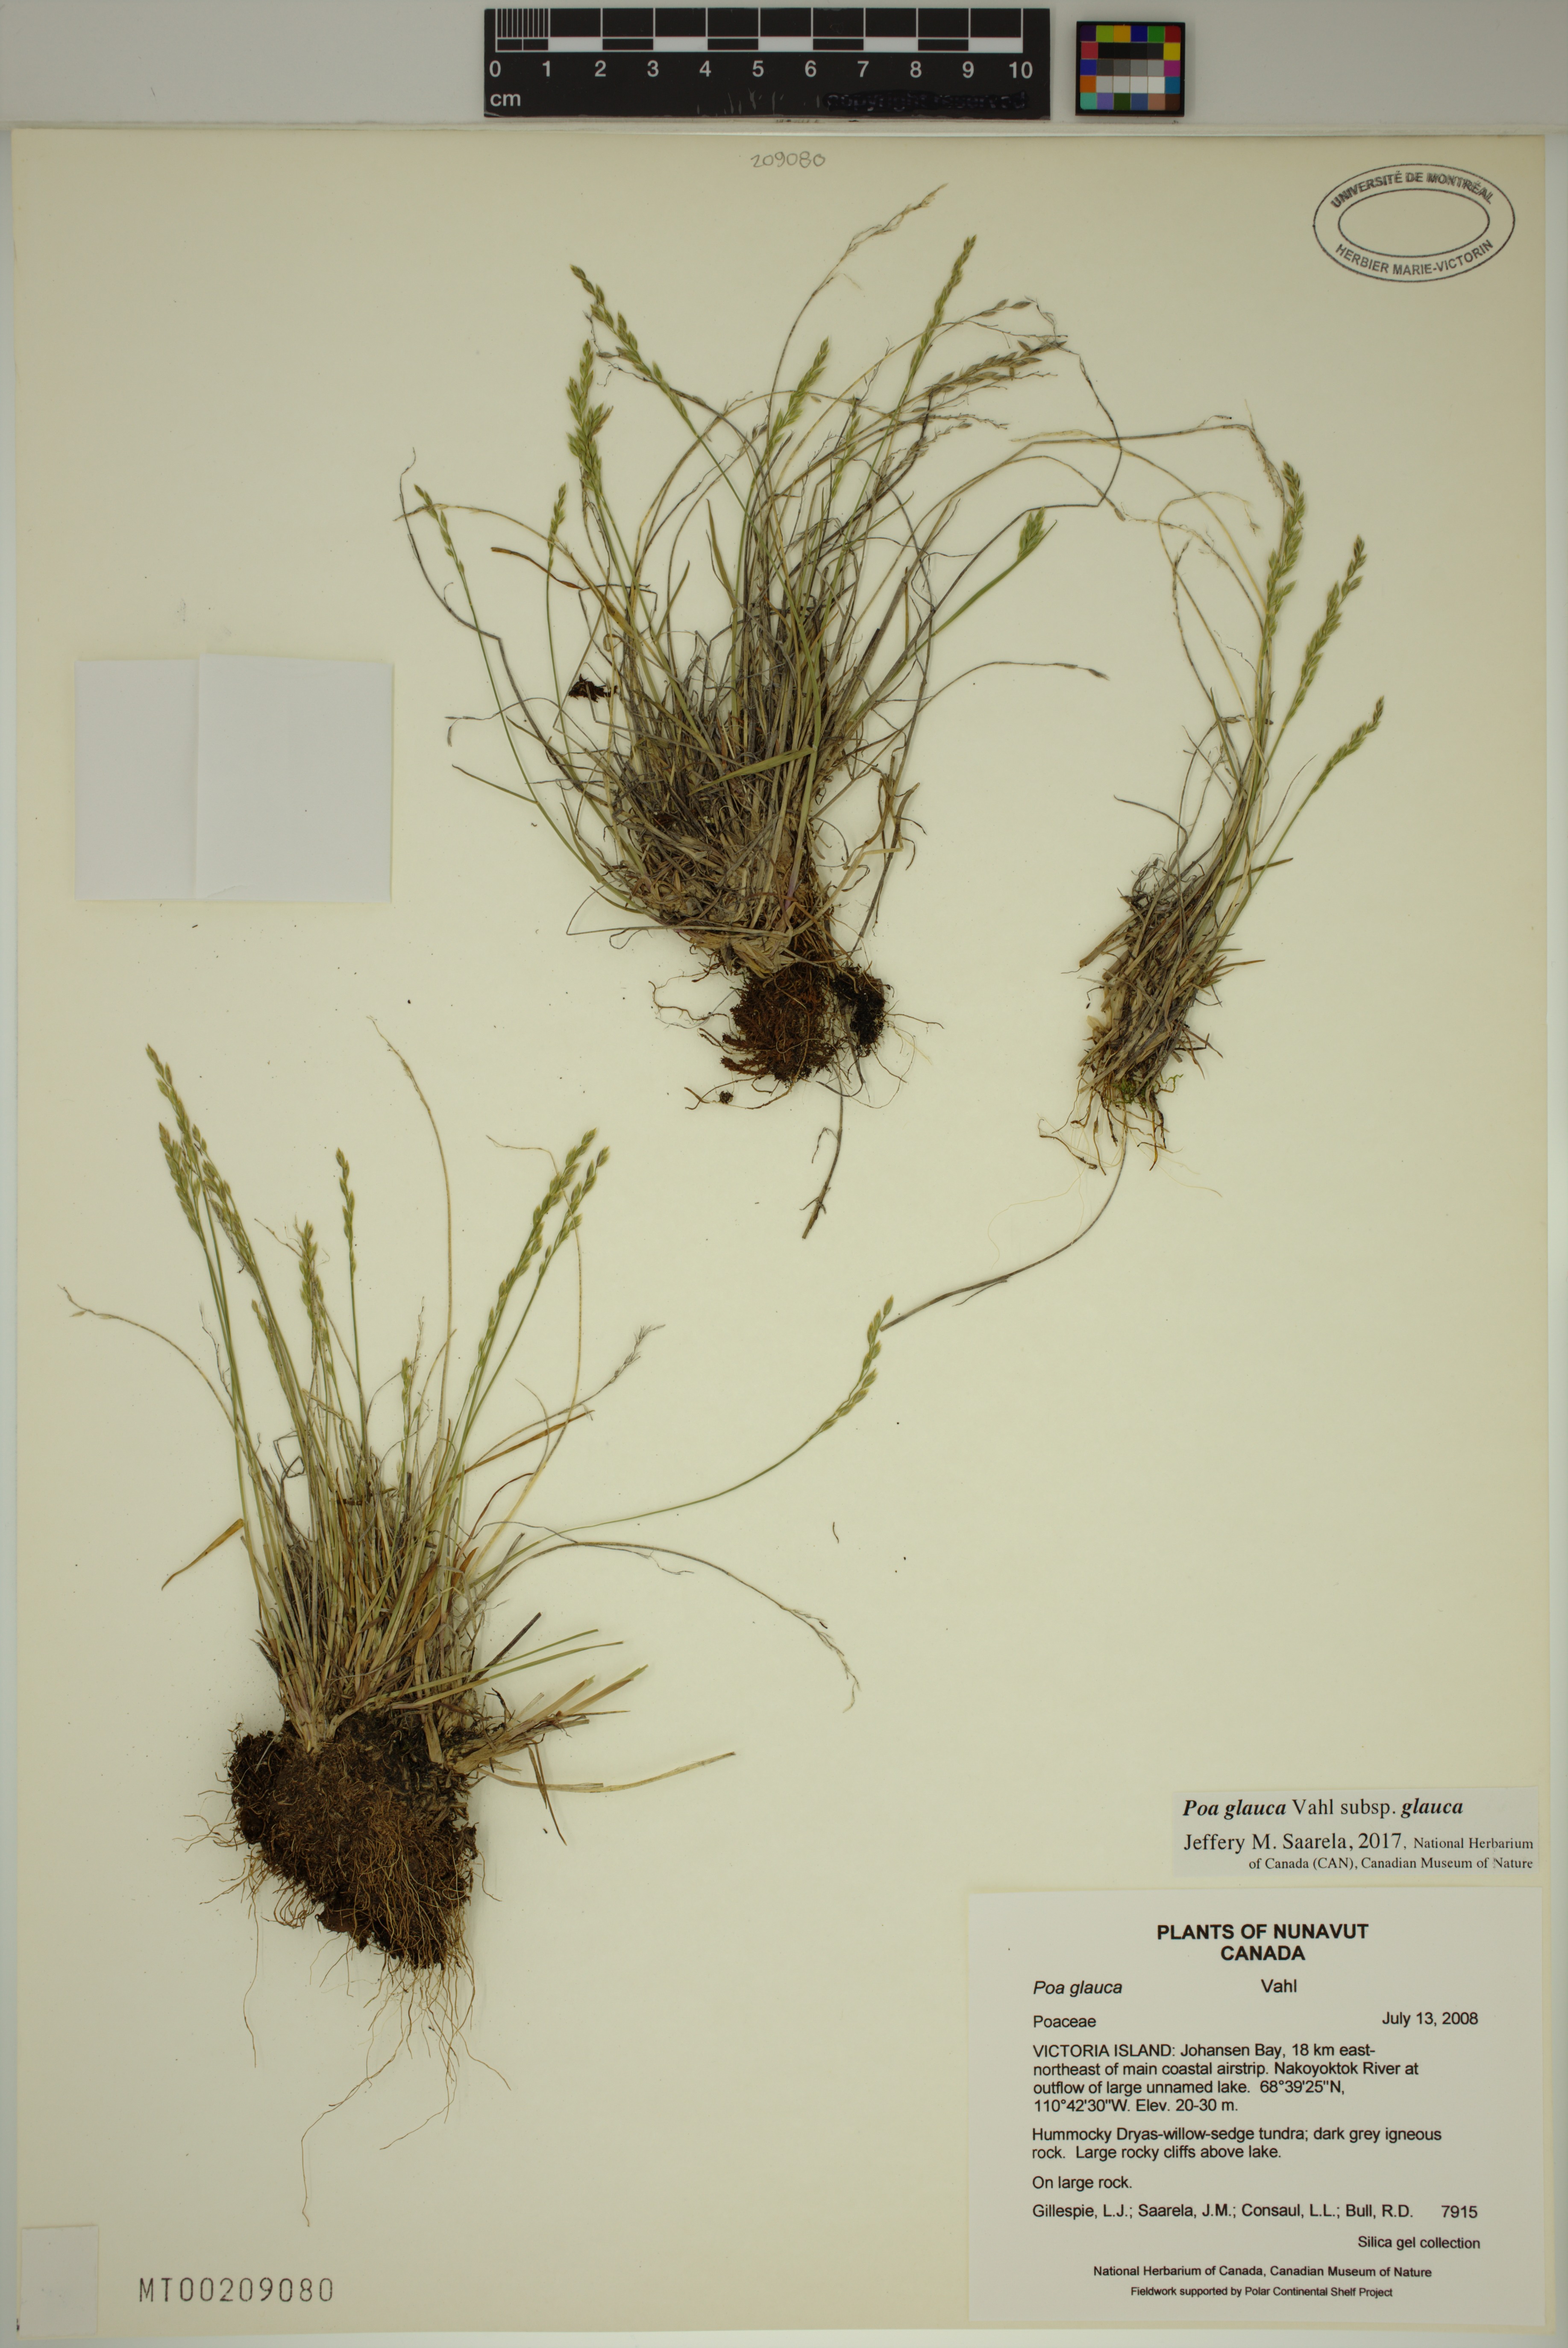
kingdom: Plantae
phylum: Tracheophyta
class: Liliopsida
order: Poales
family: Poaceae
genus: Poa
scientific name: Poa glauca
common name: Glaucous bluegrass
